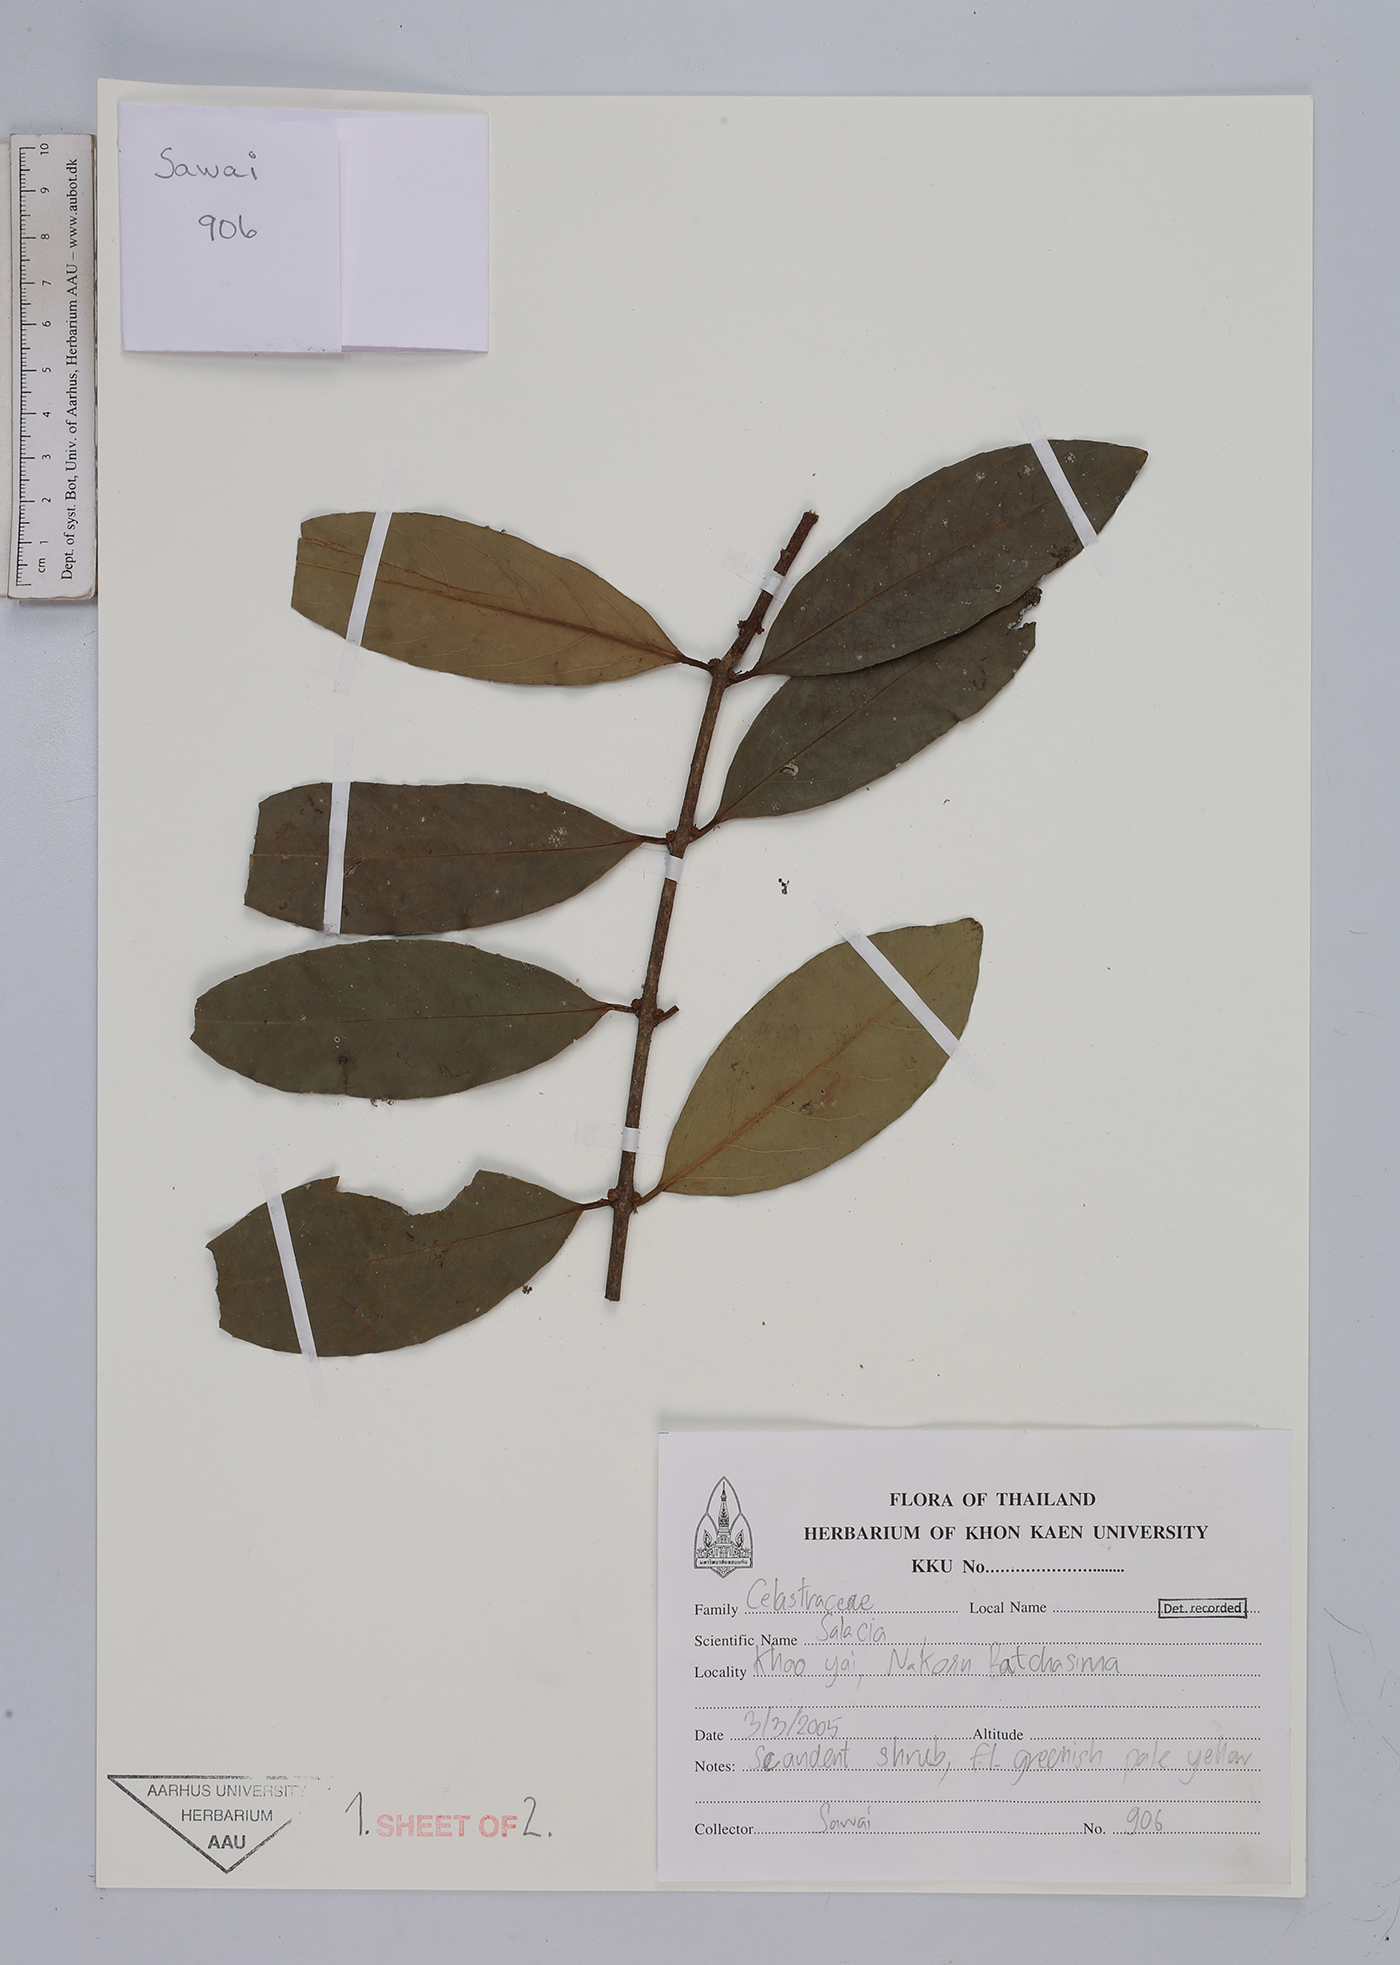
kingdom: Plantae
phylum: Tracheophyta
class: Magnoliopsida
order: Celastrales
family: Celastraceae
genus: Salacia
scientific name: Salacia
